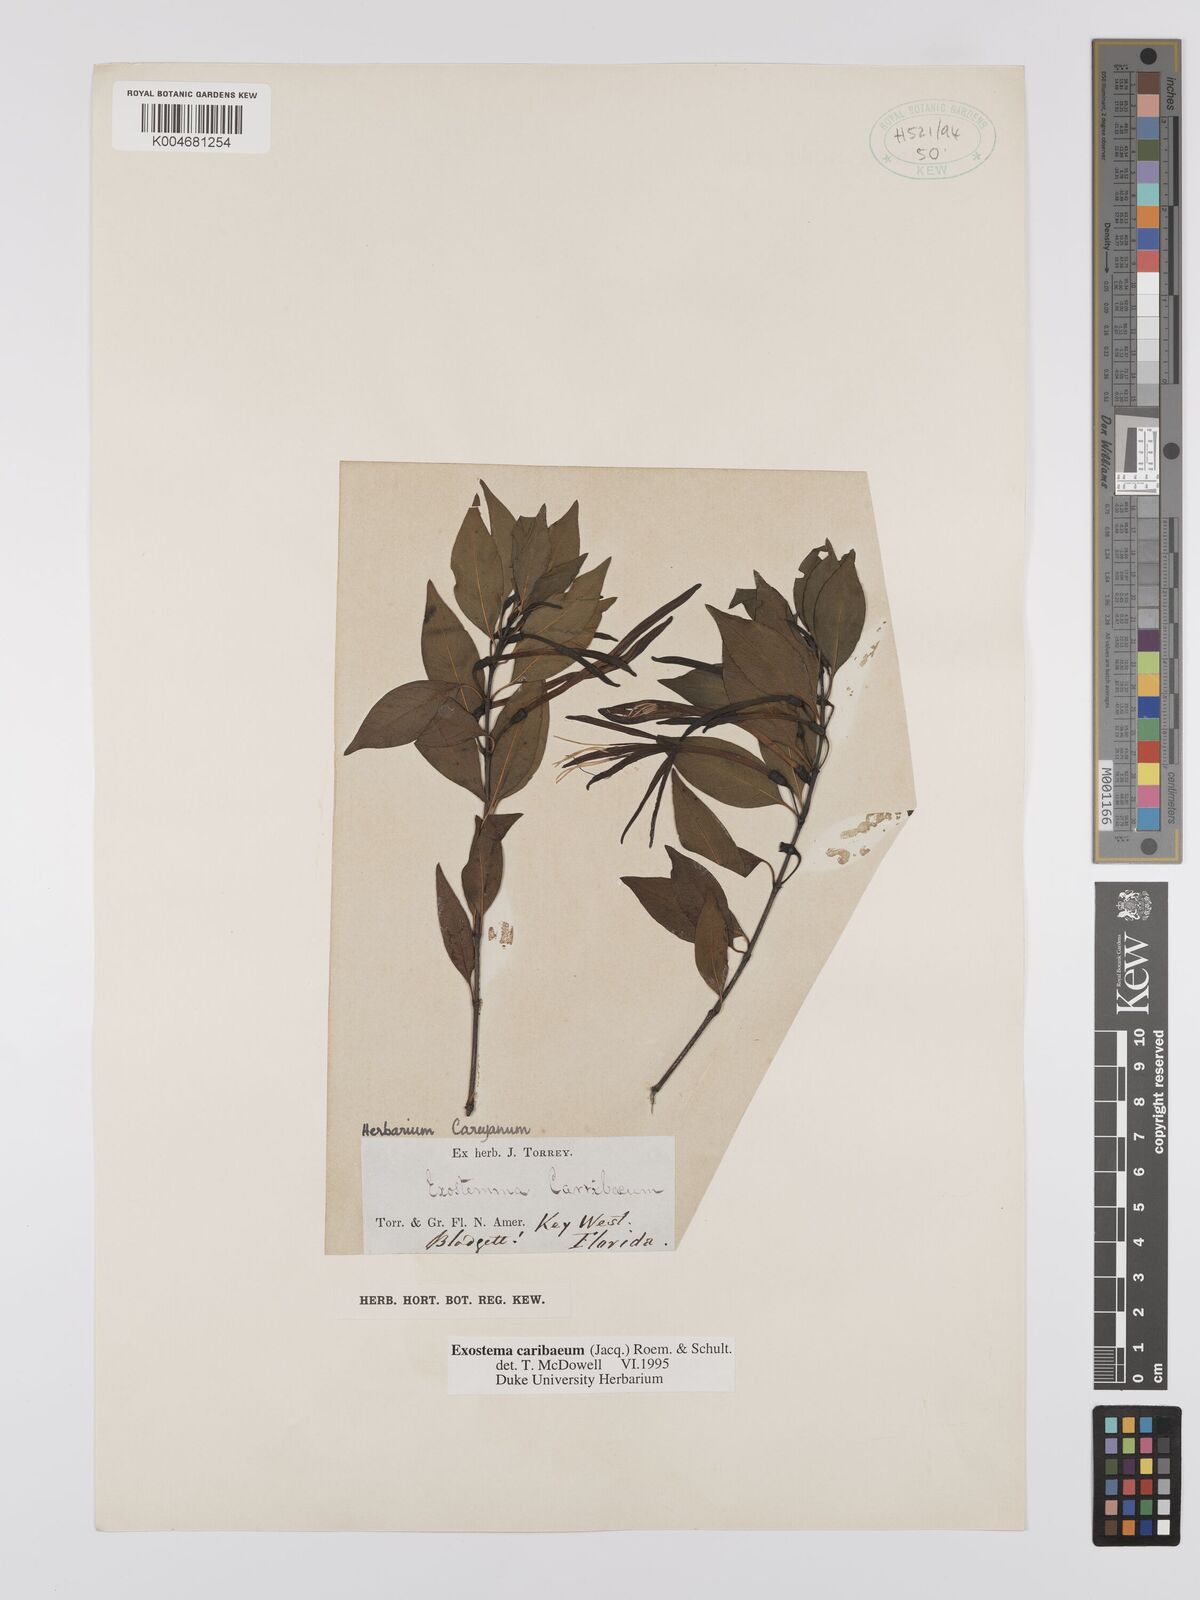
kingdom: Plantae
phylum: Tracheophyta
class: Magnoliopsida
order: Gentianales
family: Rubiaceae
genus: Exostema
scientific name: Exostema caribaeum
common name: Princewood
